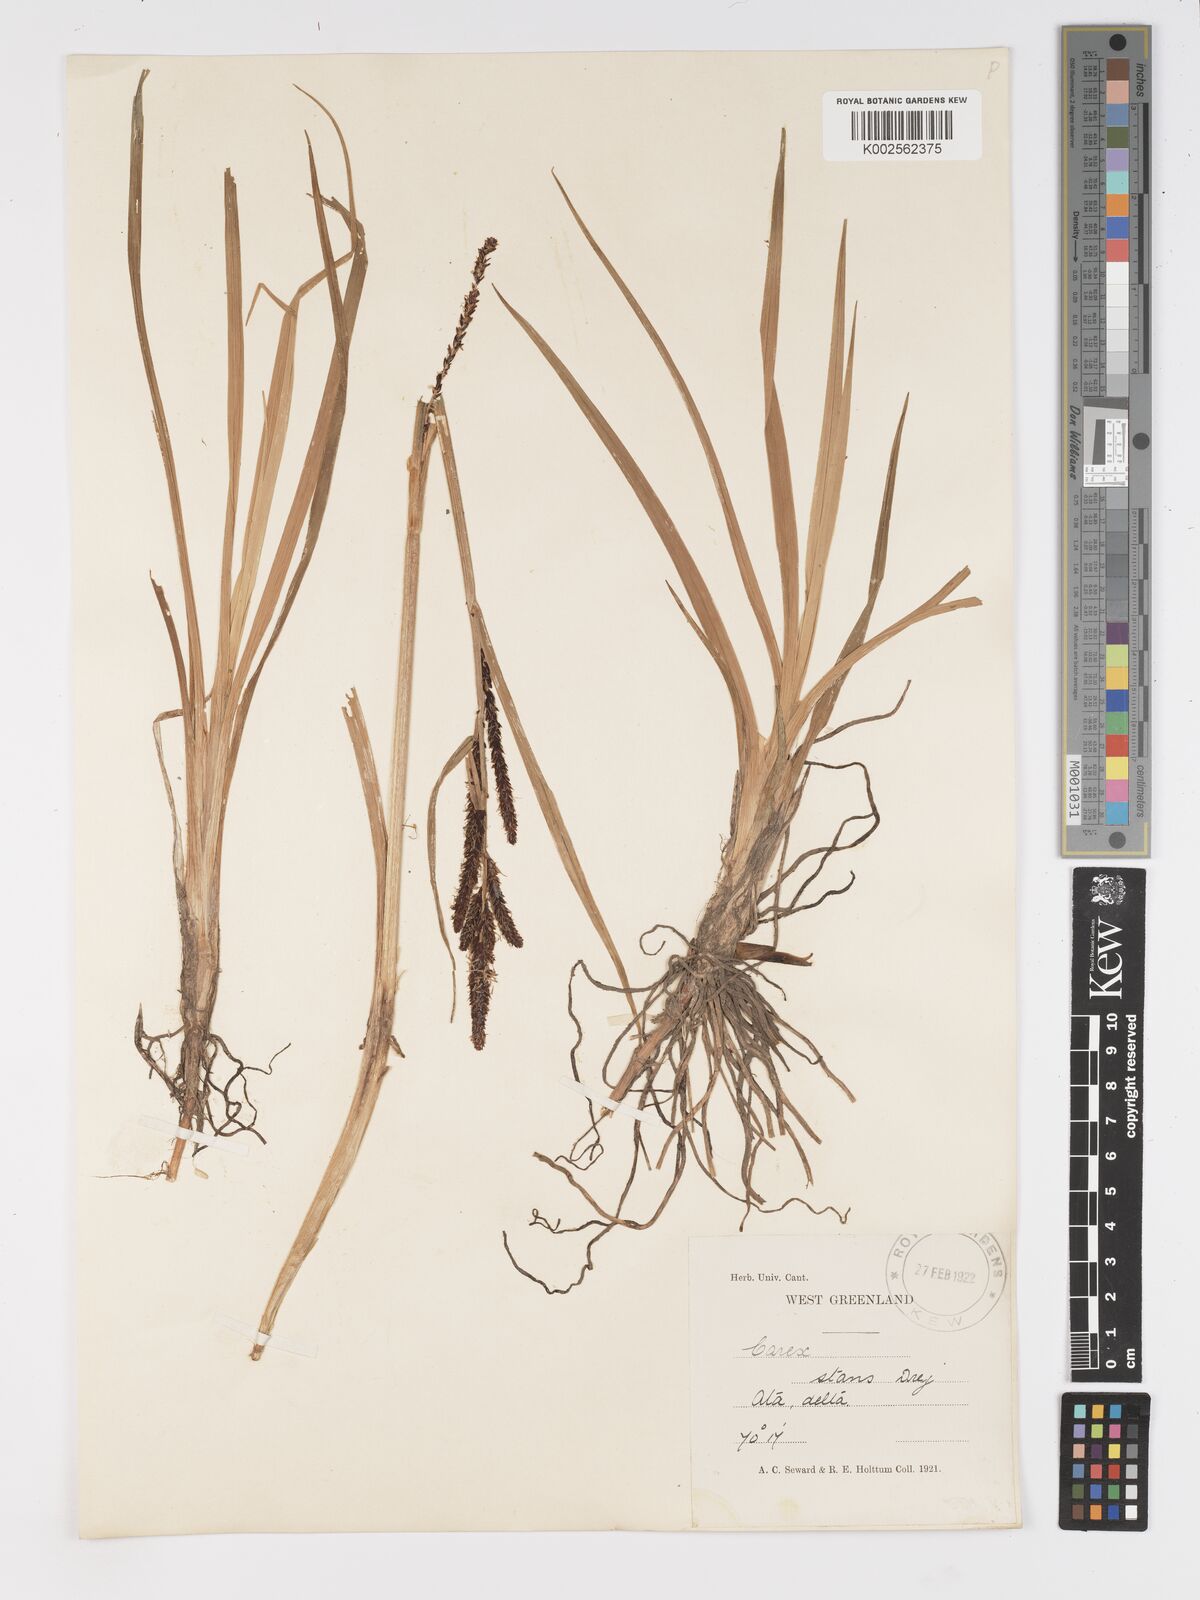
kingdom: Plantae
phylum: Tracheophyta
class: Liliopsida
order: Poales
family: Cyperaceae
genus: Carex
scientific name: Carex aquatilis
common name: Water sedge
